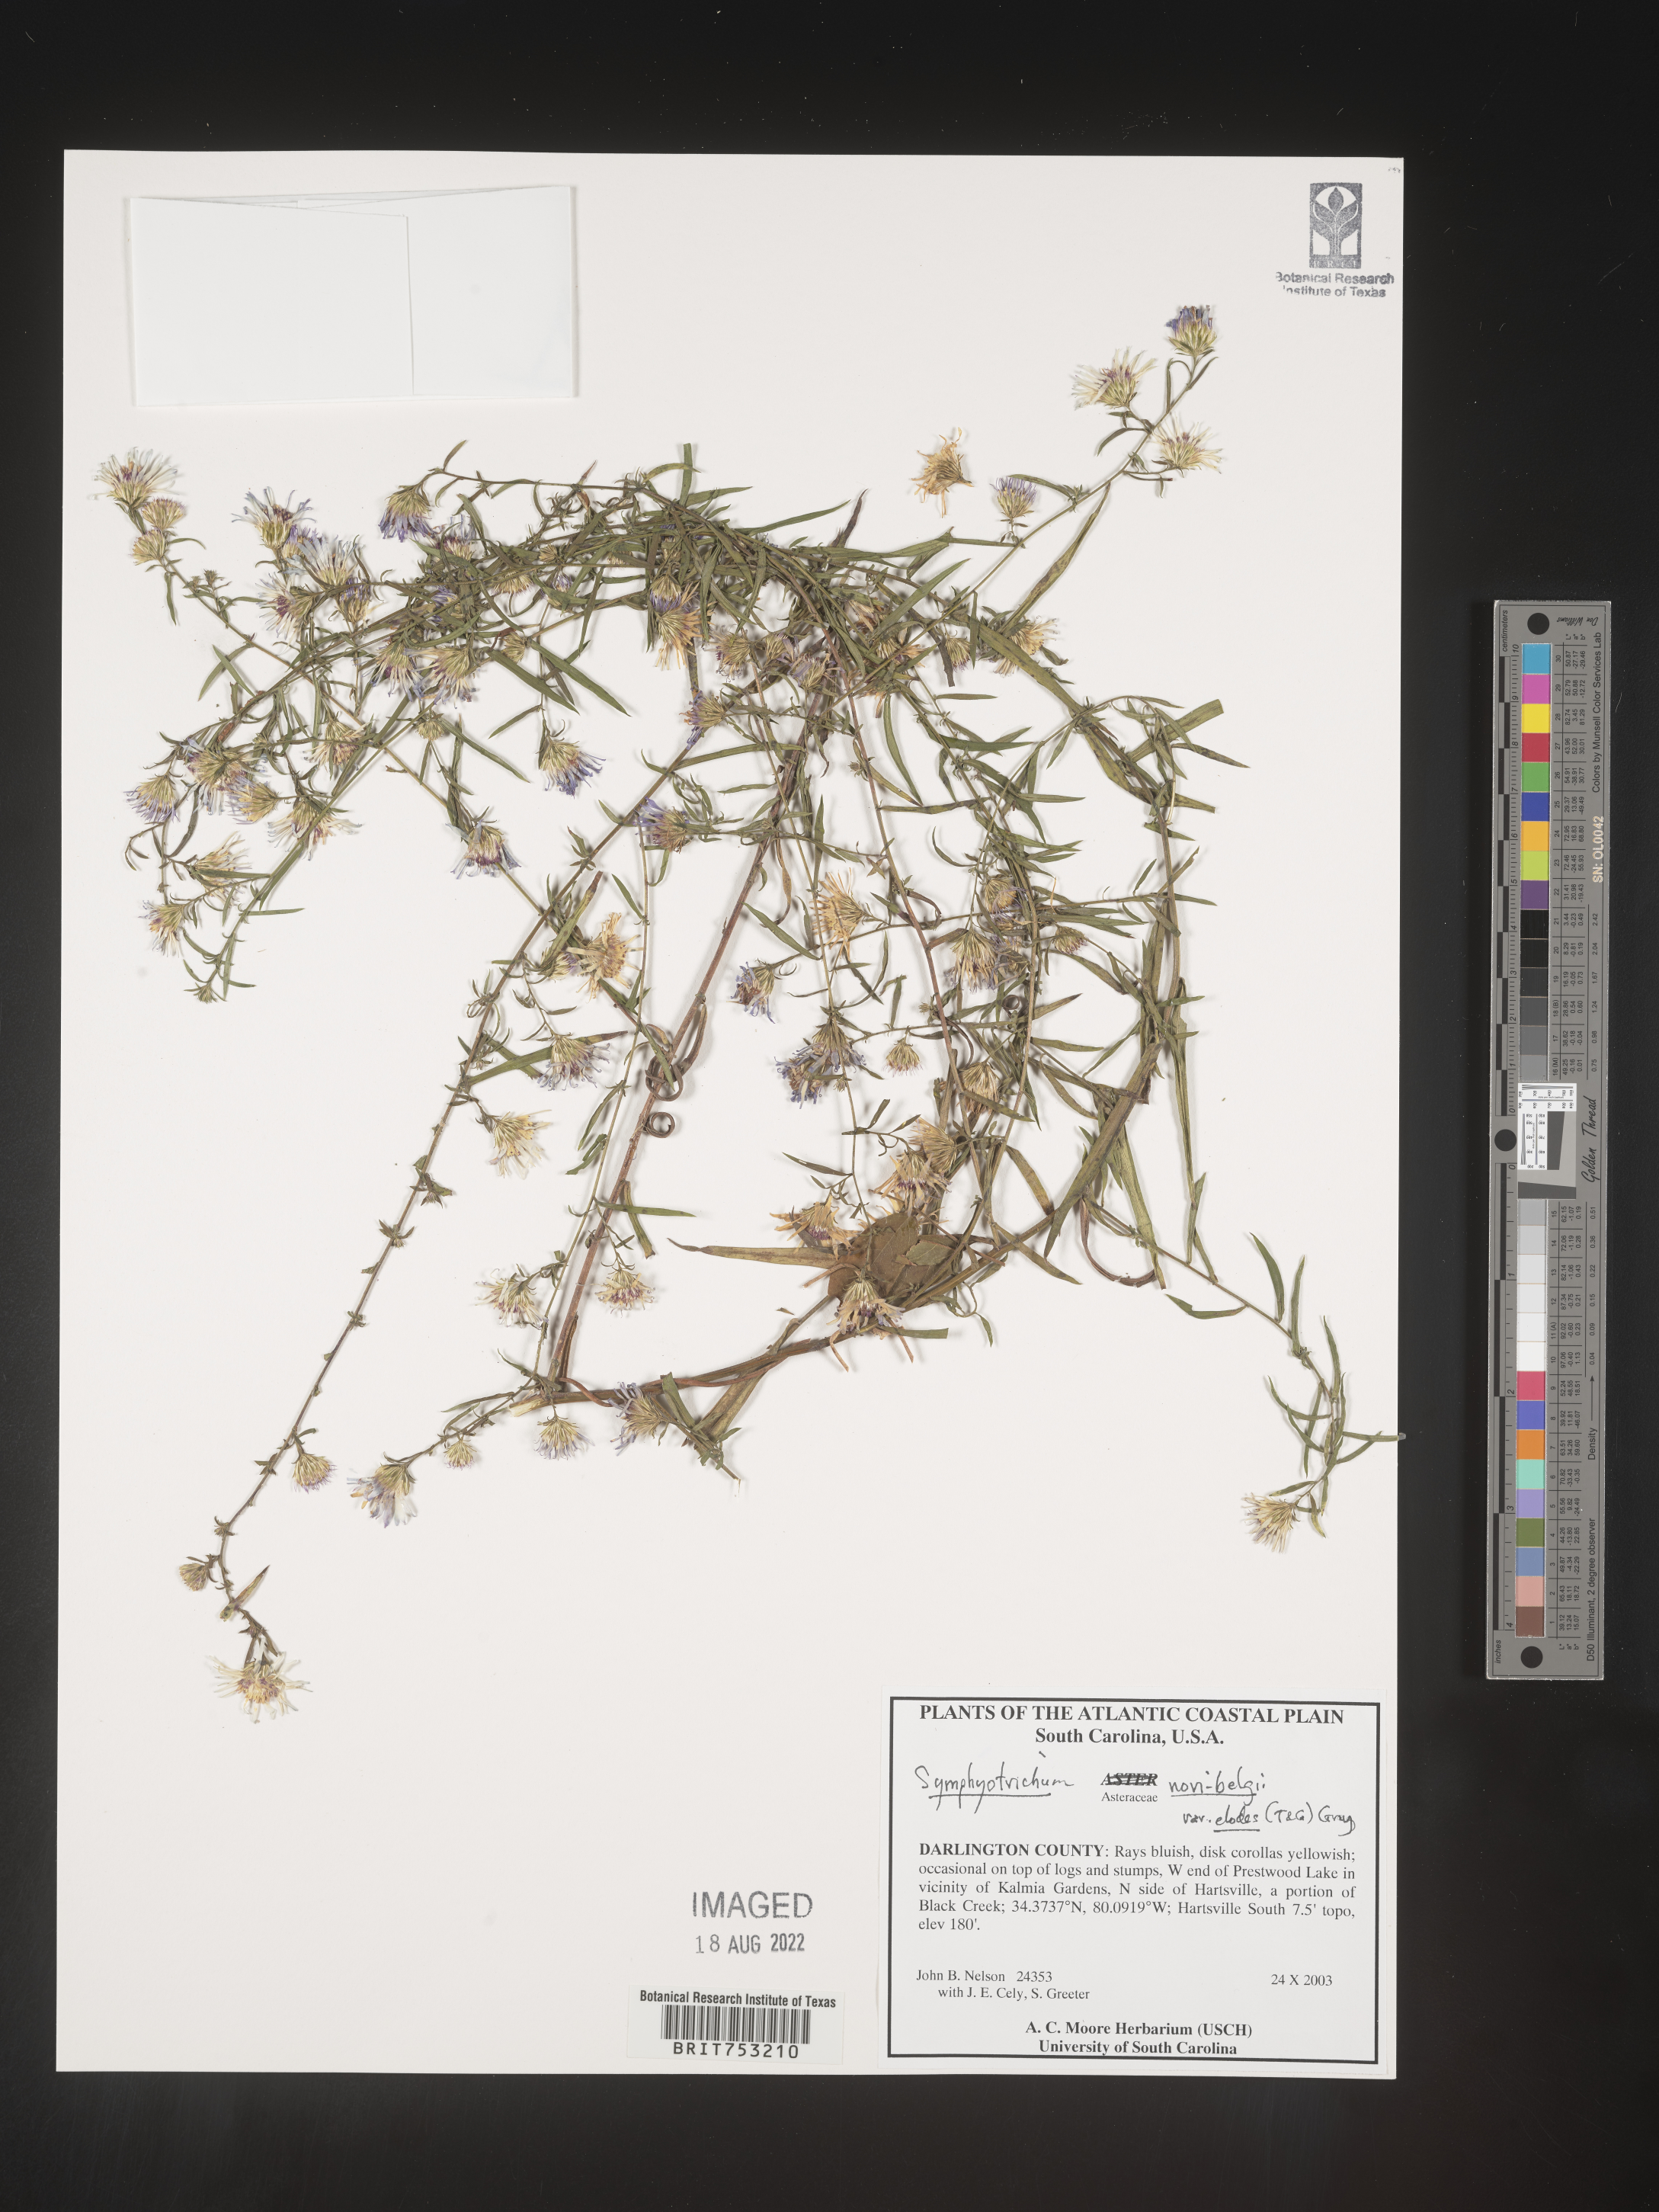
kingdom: Plantae
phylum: Tracheophyta
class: Magnoliopsida
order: Asterales
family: Asteraceae
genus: Symphyotrichum
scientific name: Symphyotrichum novi-belgii
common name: Michaelmas daisy
